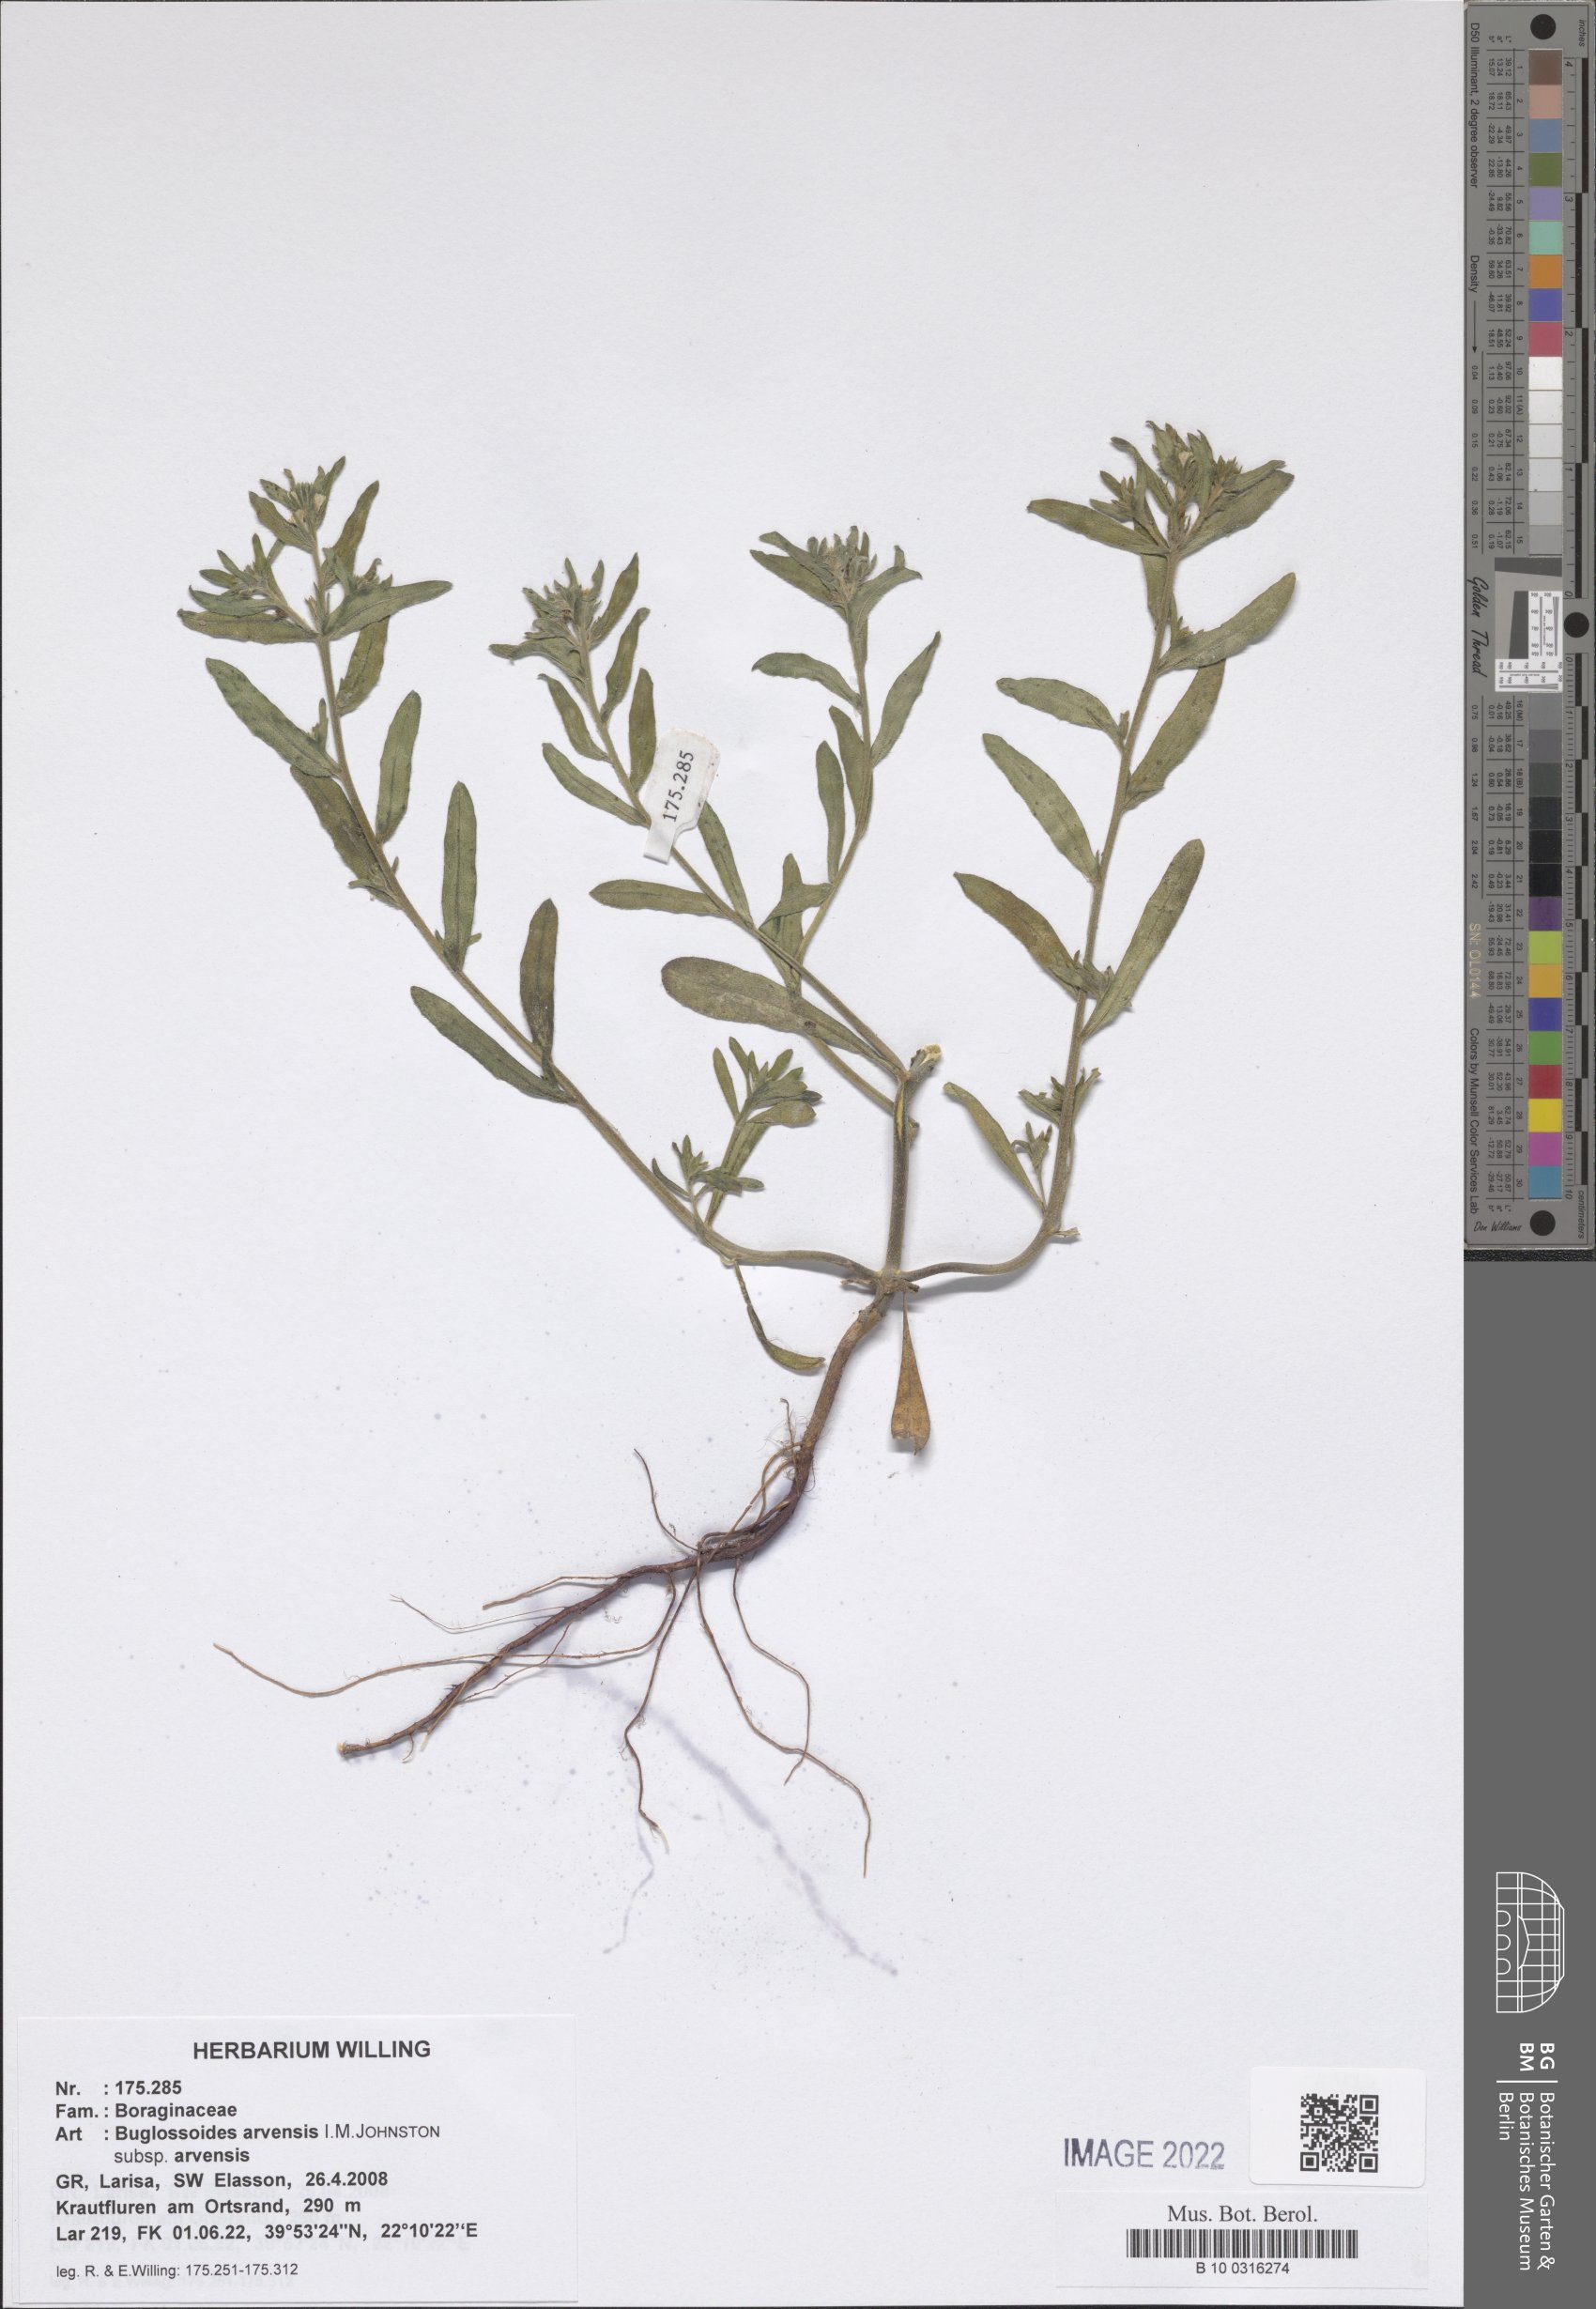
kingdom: Plantae
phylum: Tracheophyta
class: Magnoliopsida
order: Boraginales
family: Boraginaceae
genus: Buglossoides
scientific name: Buglossoides arvensis
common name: Corn gromwell
